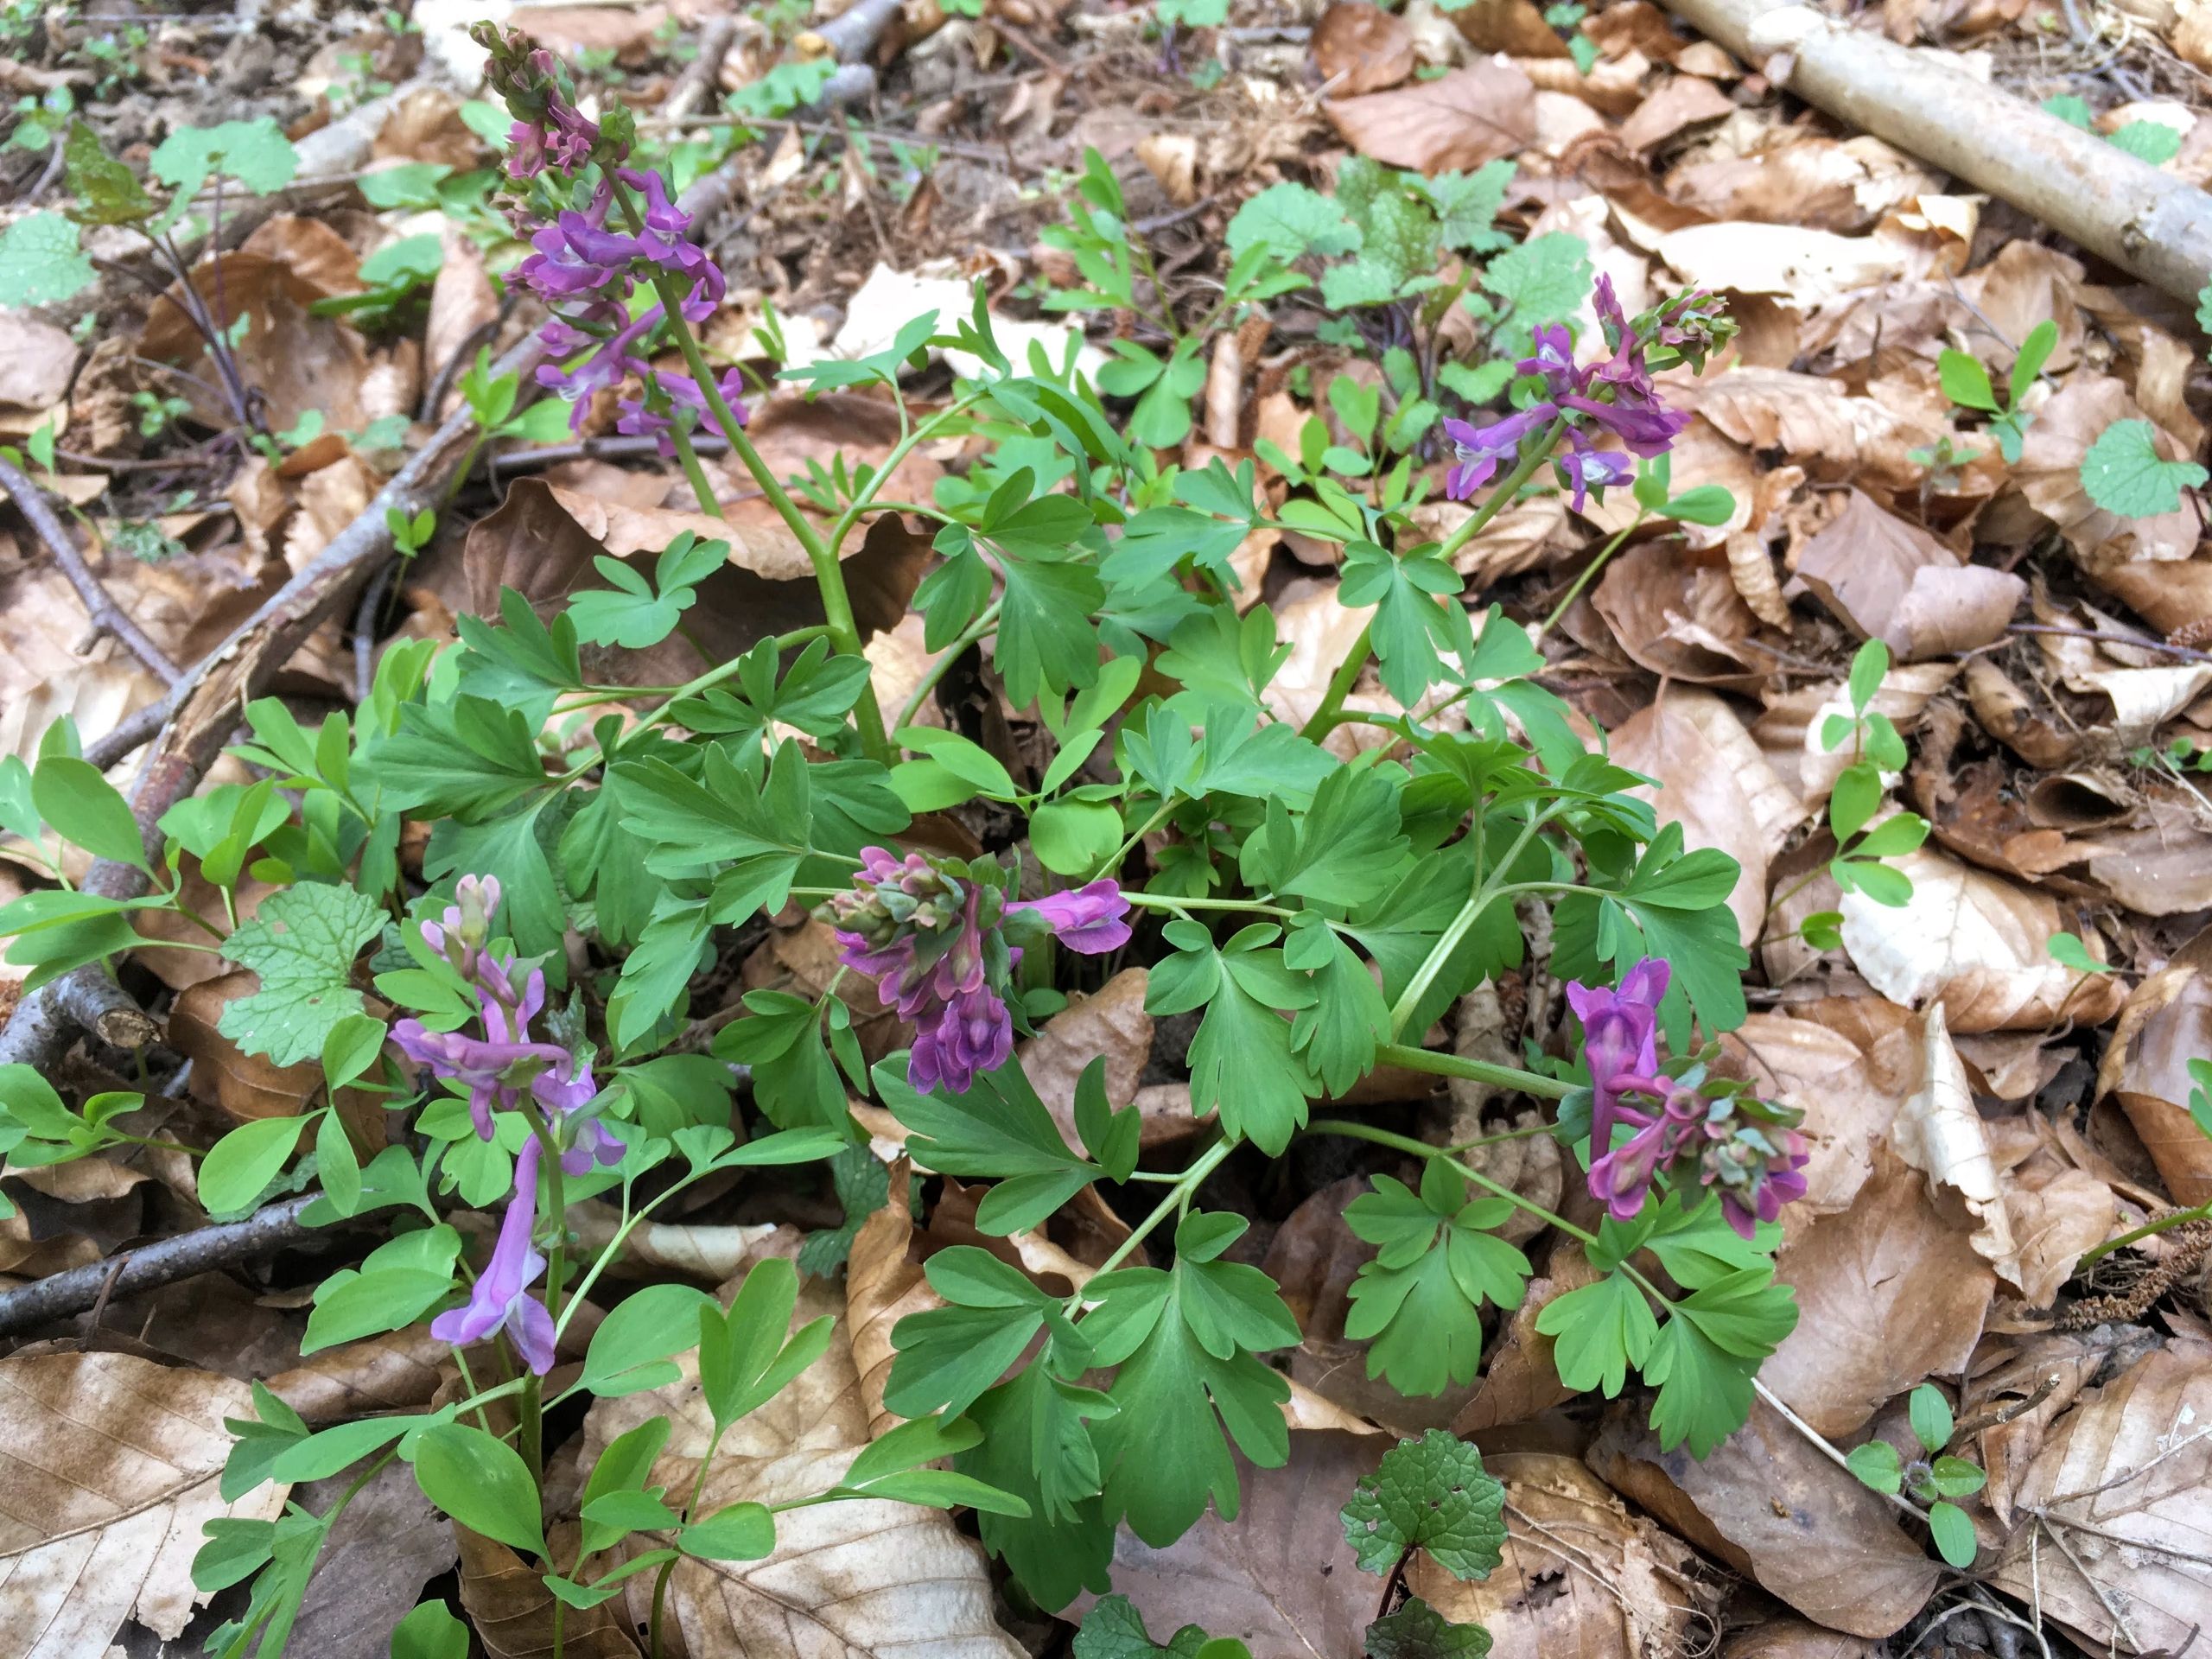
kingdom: Plantae
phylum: Tracheophyta
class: Magnoliopsida
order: Ranunculales
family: Papaveraceae
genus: Corydalis
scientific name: Corydalis cava
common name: Hulrodet lærkespore
